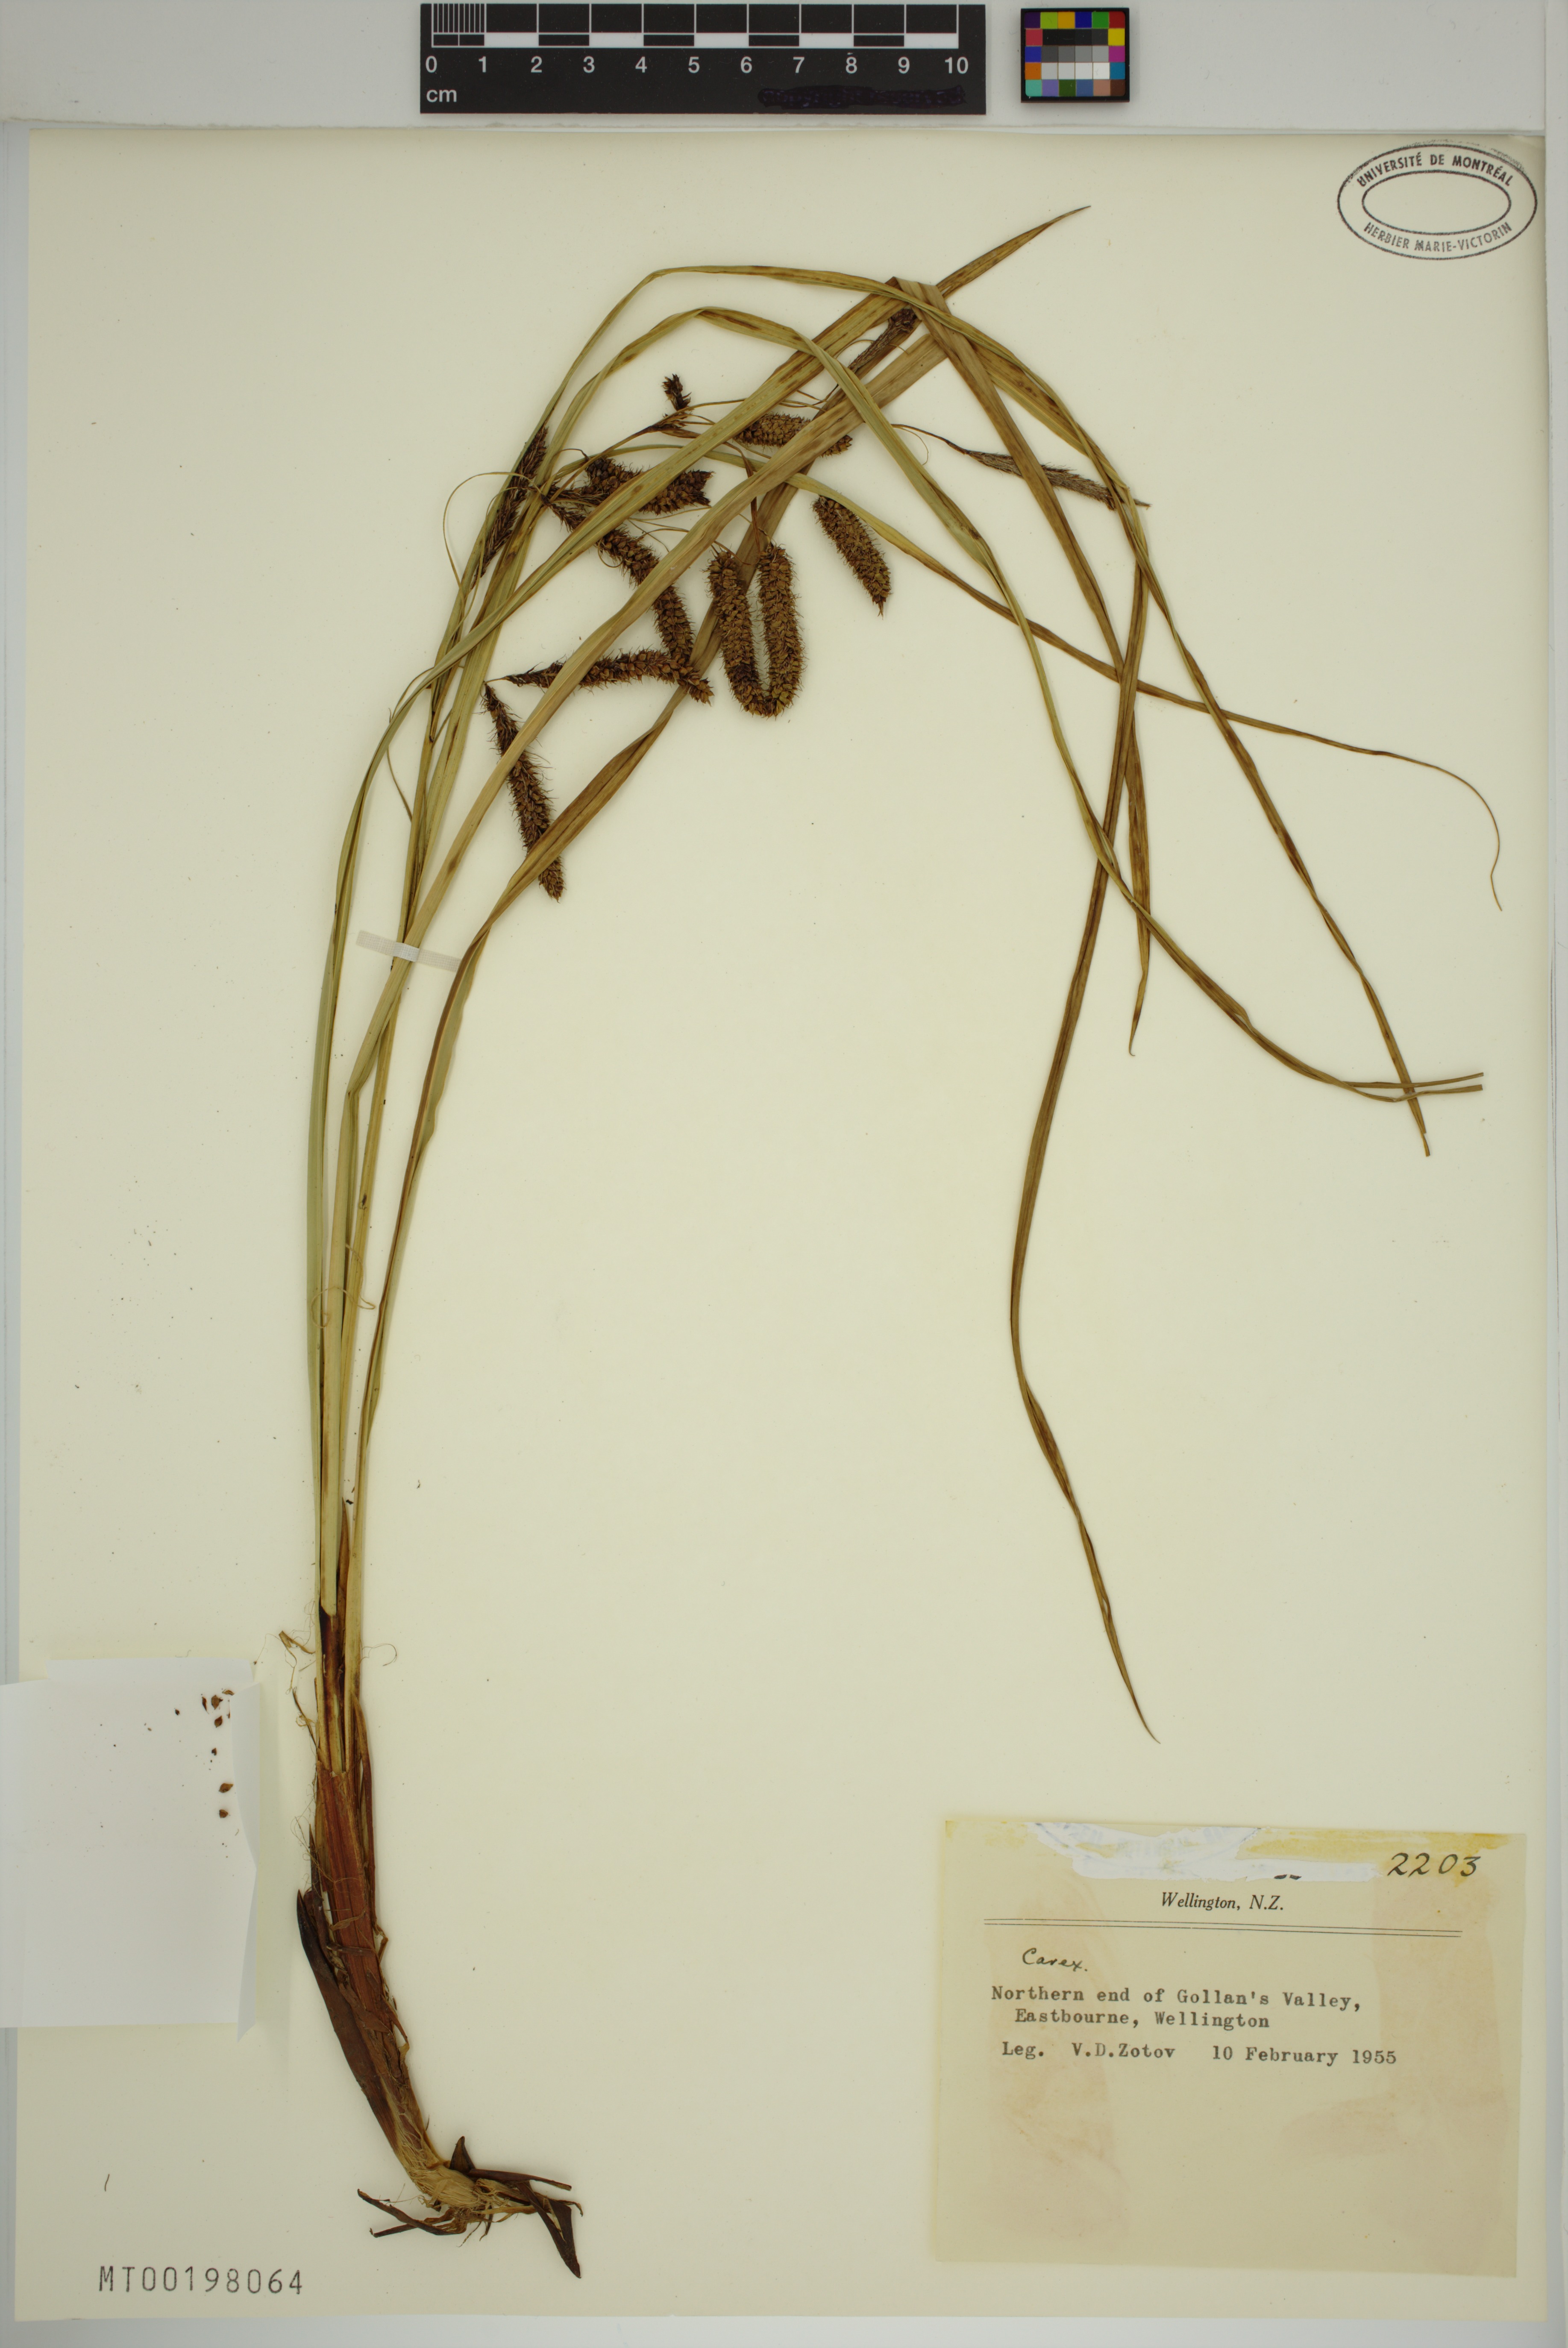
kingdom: Plantae
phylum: Tracheophyta
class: Liliopsida
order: Poales
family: Cyperaceae
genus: Carex
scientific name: Carex
